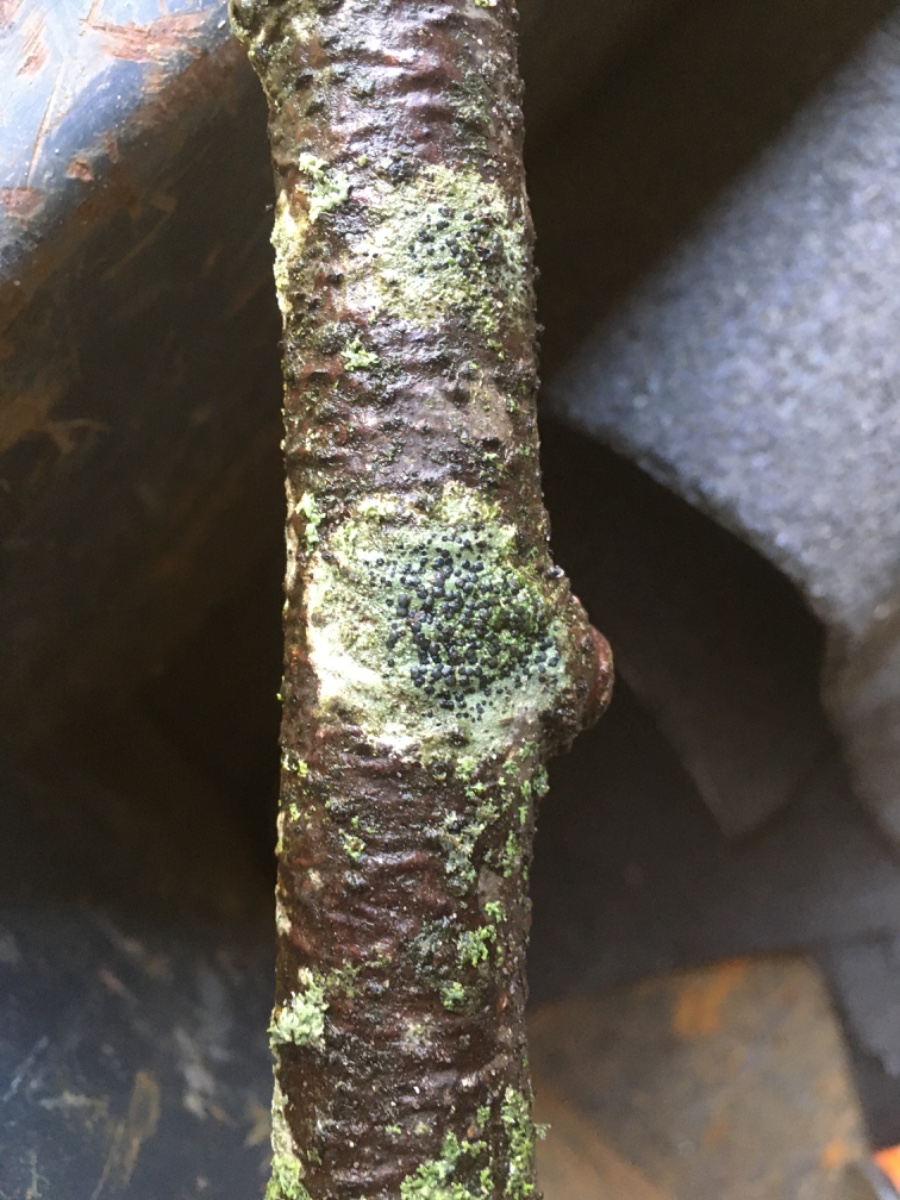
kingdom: Fungi
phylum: Ascomycota
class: Lecanoromycetes
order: Lecanorales
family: Lecanoraceae
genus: Lecidella
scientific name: Lecidella elaeochroma
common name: grågrøn skivelav
